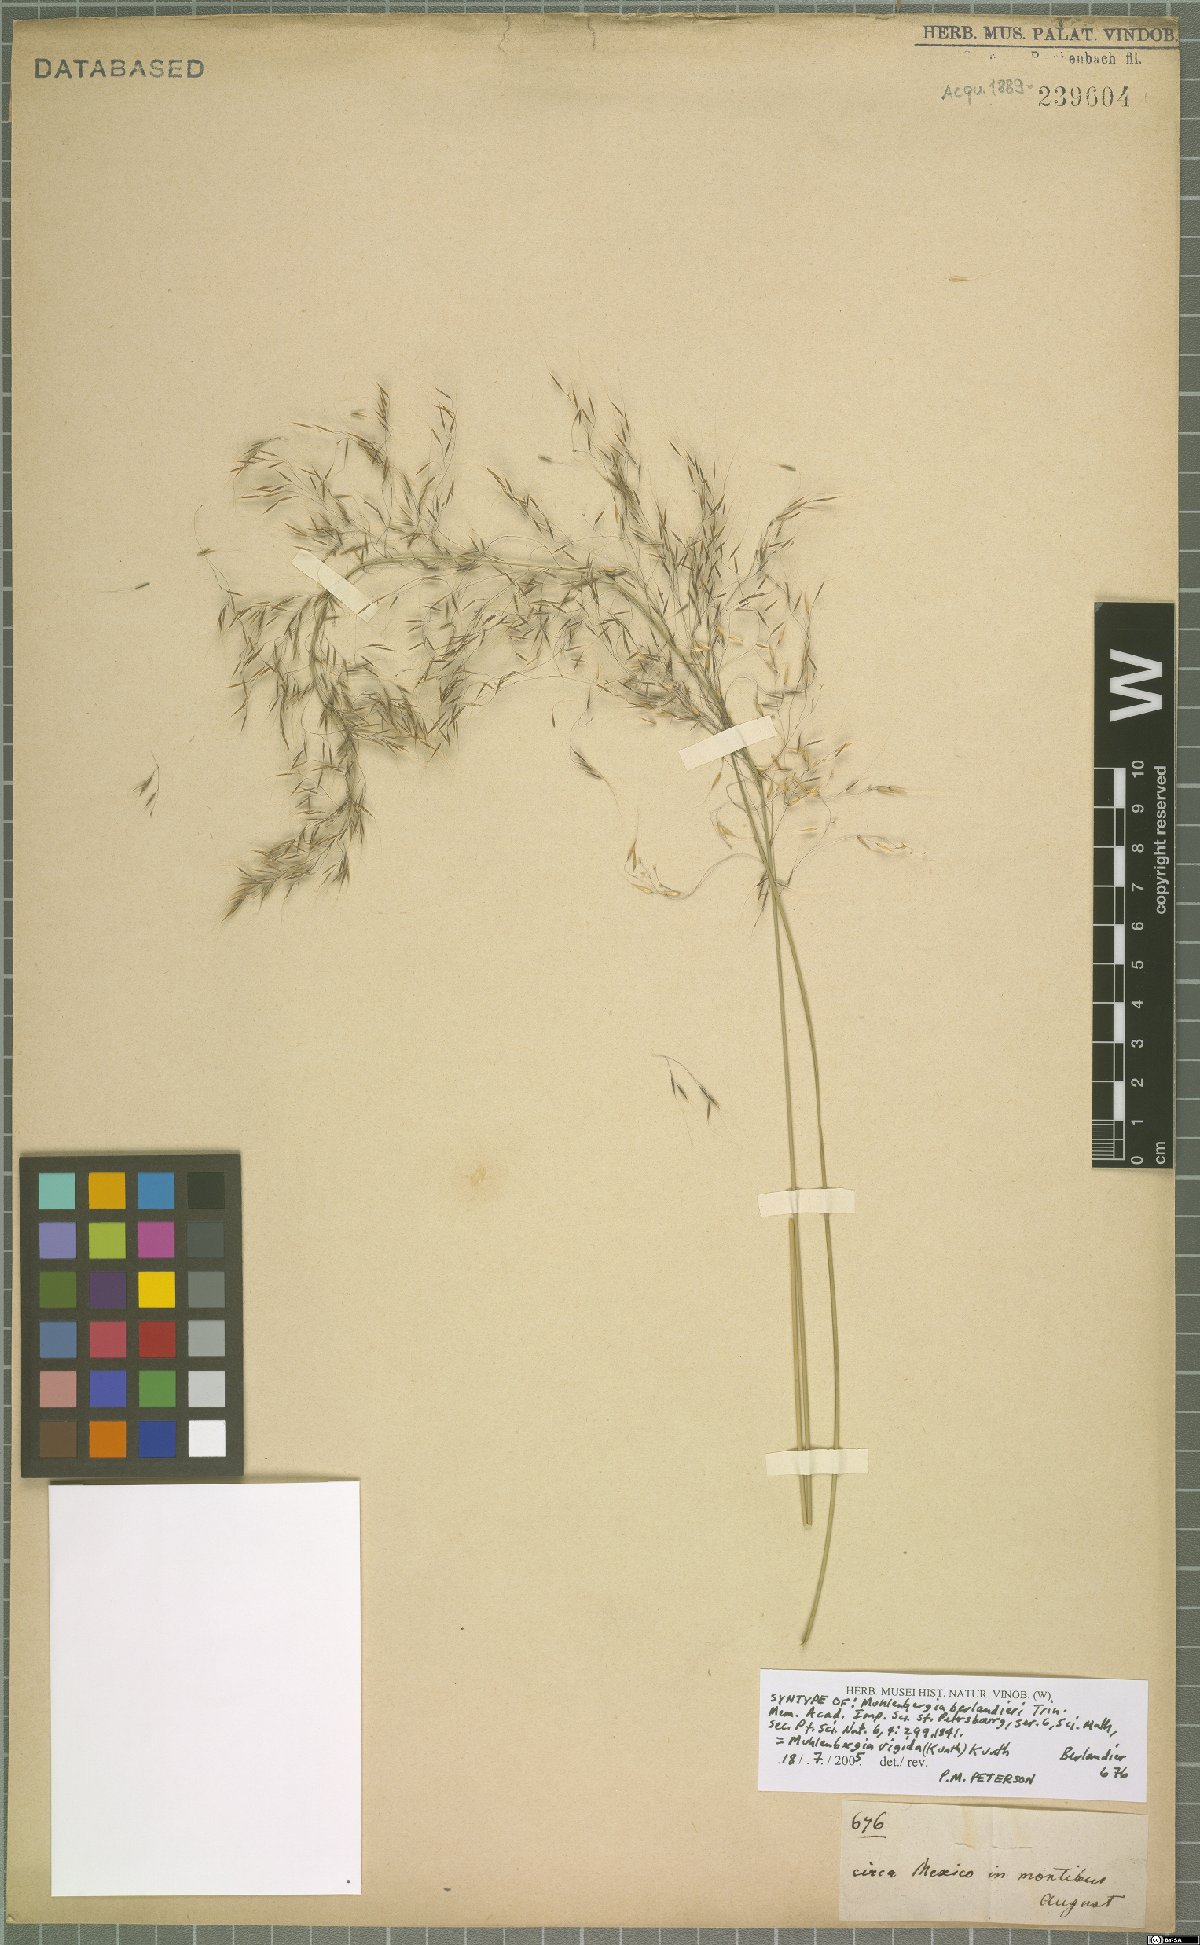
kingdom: Plantae
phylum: Tracheophyta
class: Liliopsida
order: Poales
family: Poaceae
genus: Muhlenbergia
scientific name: Muhlenbergia rigida
